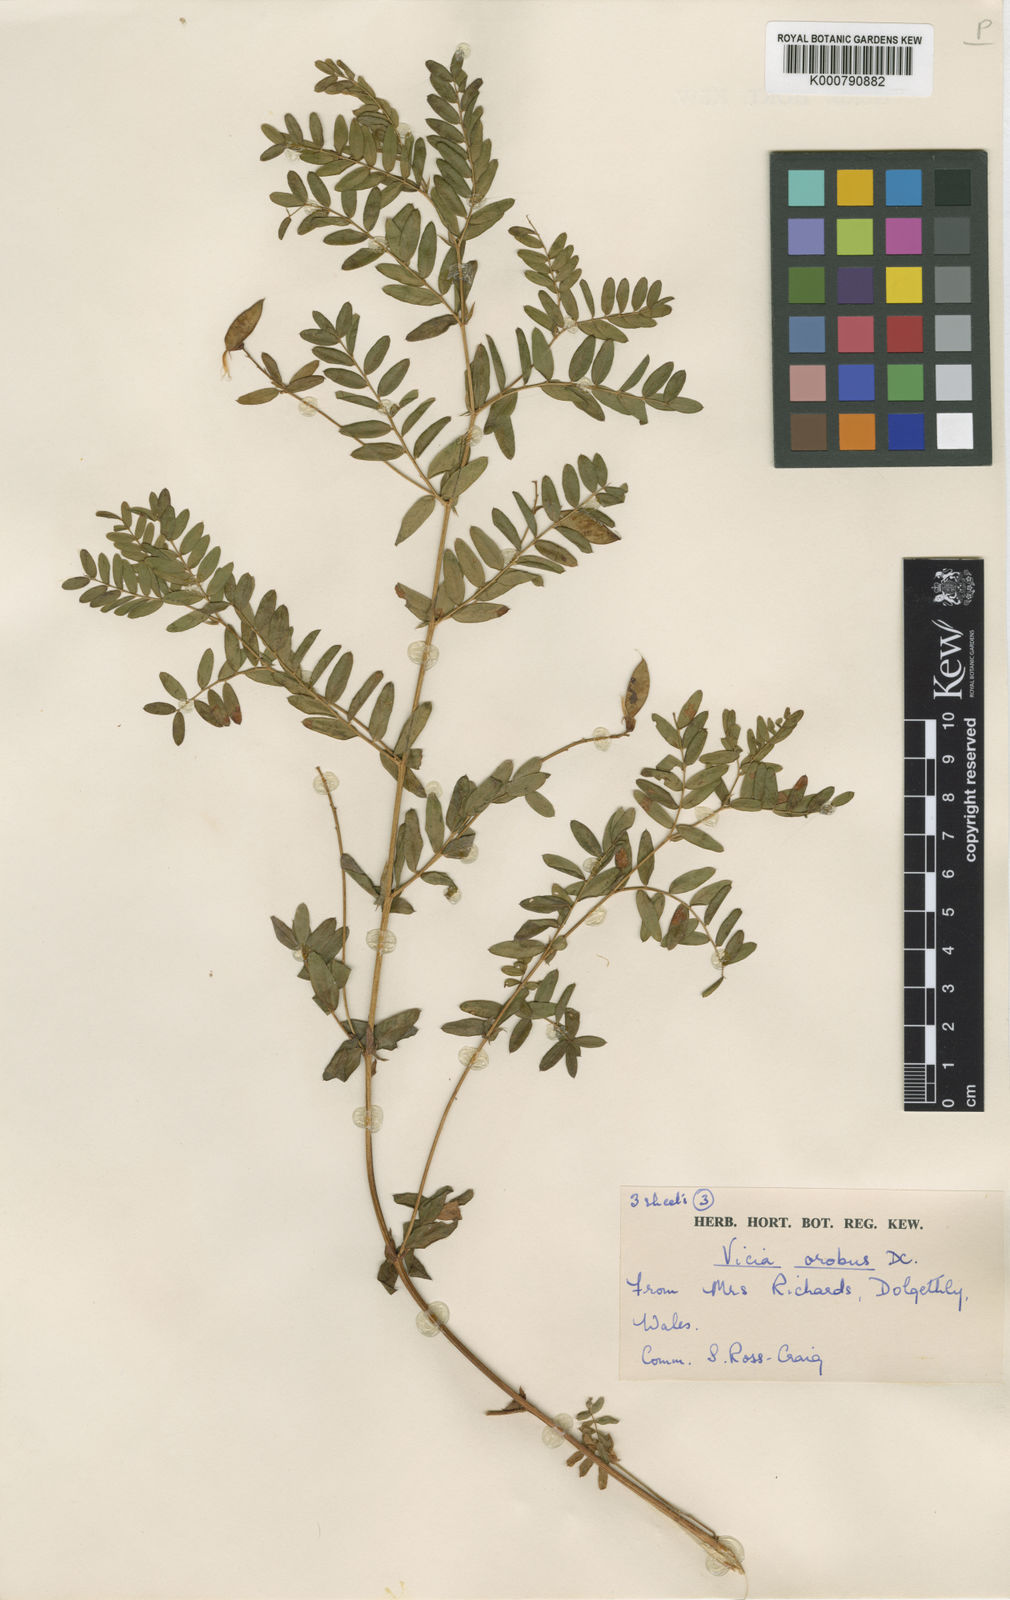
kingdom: Plantae
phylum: Tracheophyta
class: Magnoliopsida
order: Fabales
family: Fabaceae
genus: Vicia
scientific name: Vicia orobus
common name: Wood bitter-vetch
